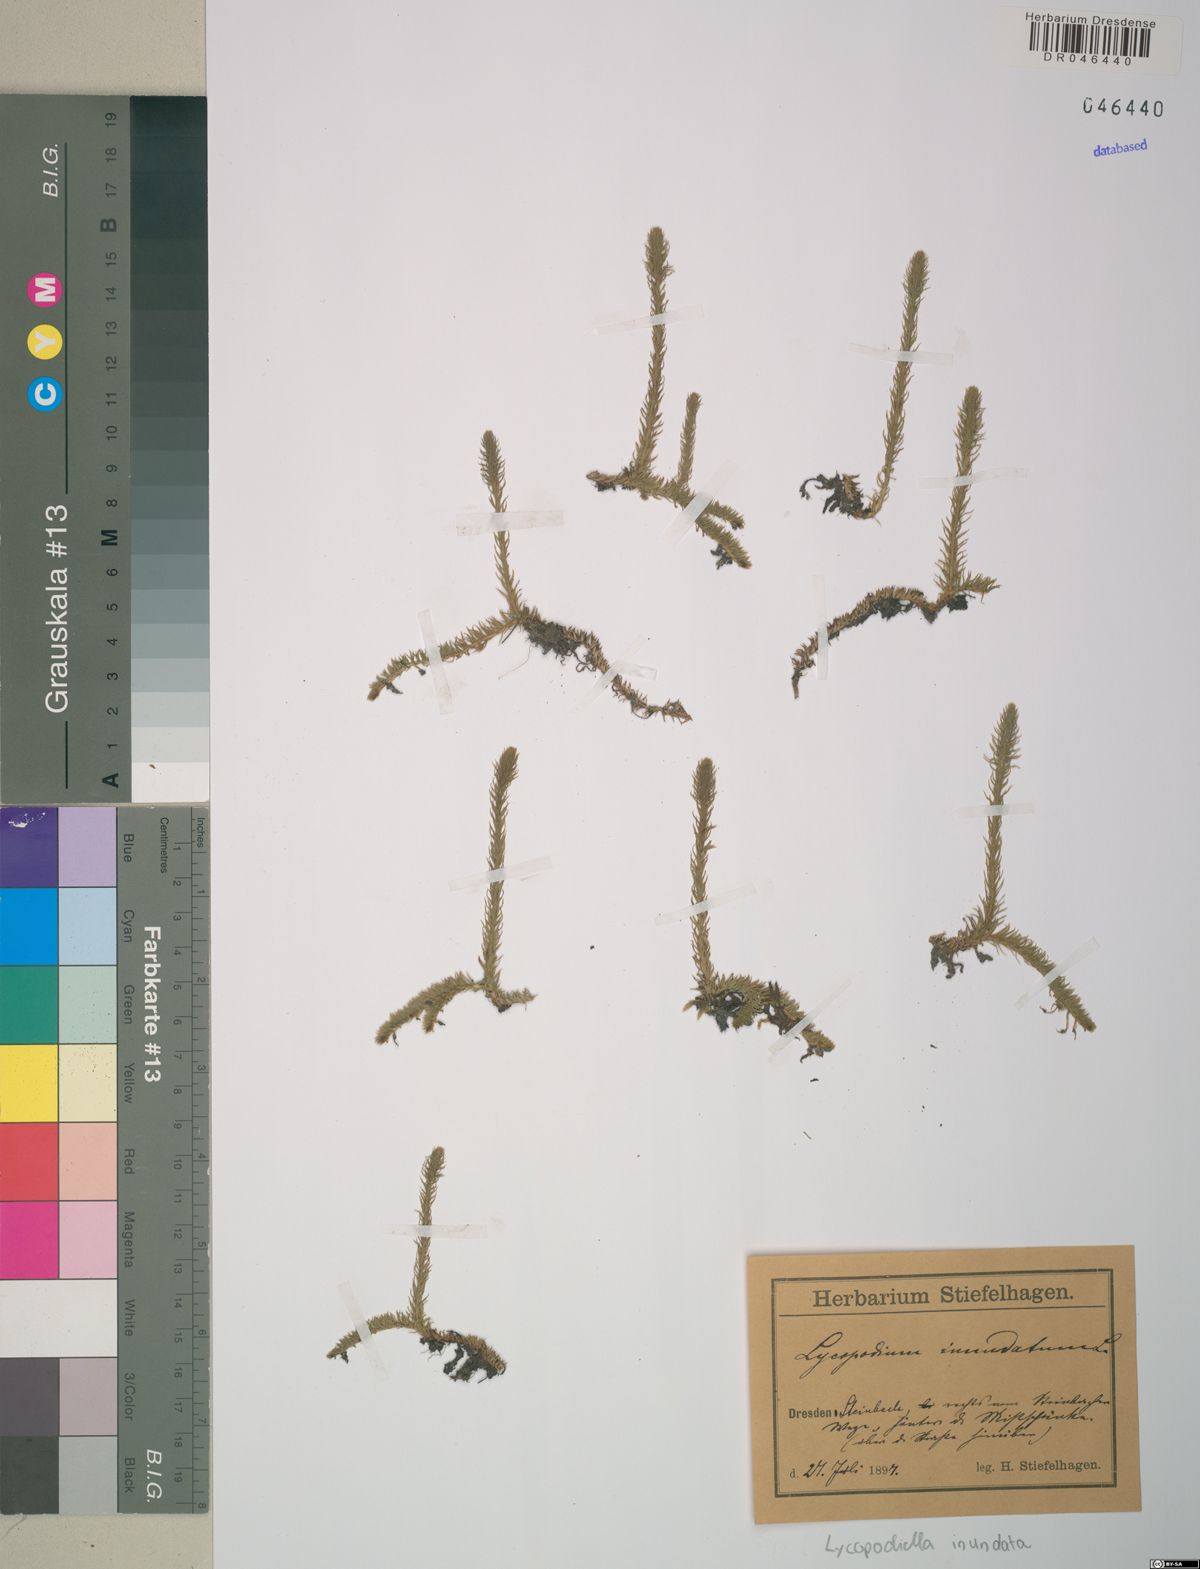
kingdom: Plantae
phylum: Tracheophyta
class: Lycopodiopsida
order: Lycopodiales
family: Lycopodiaceae
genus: Lycopodiella
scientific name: Lycopodiella inundata
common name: Marsh clubmoss
